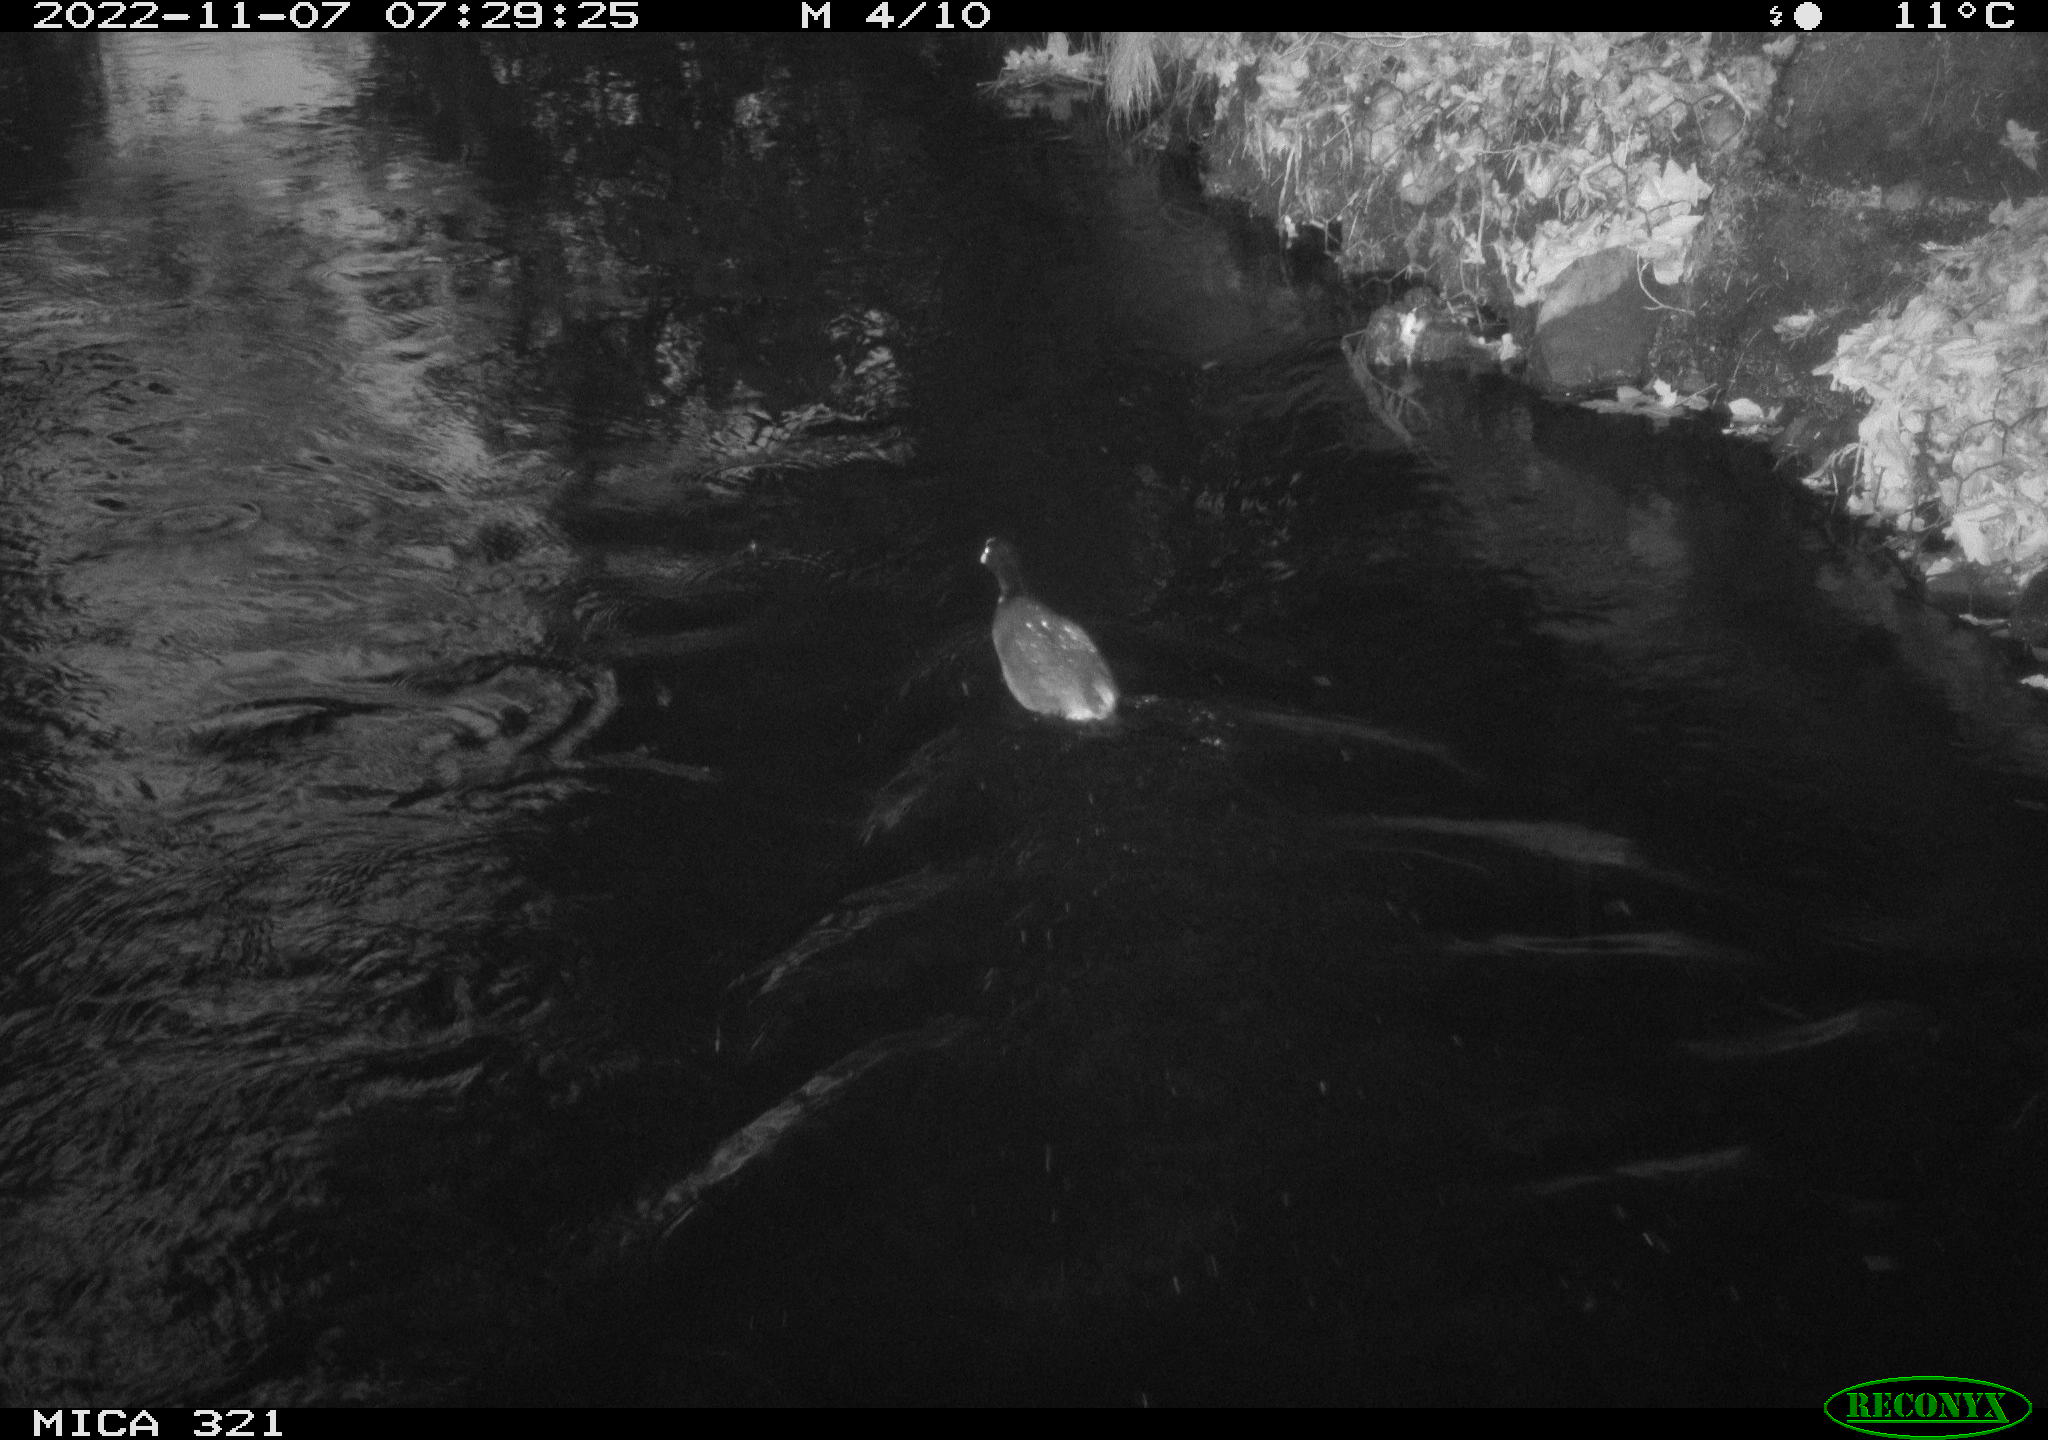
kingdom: Animalia
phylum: Chordata
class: Aves
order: Anseriformes
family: Anatidae
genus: Anas
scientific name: Anas
